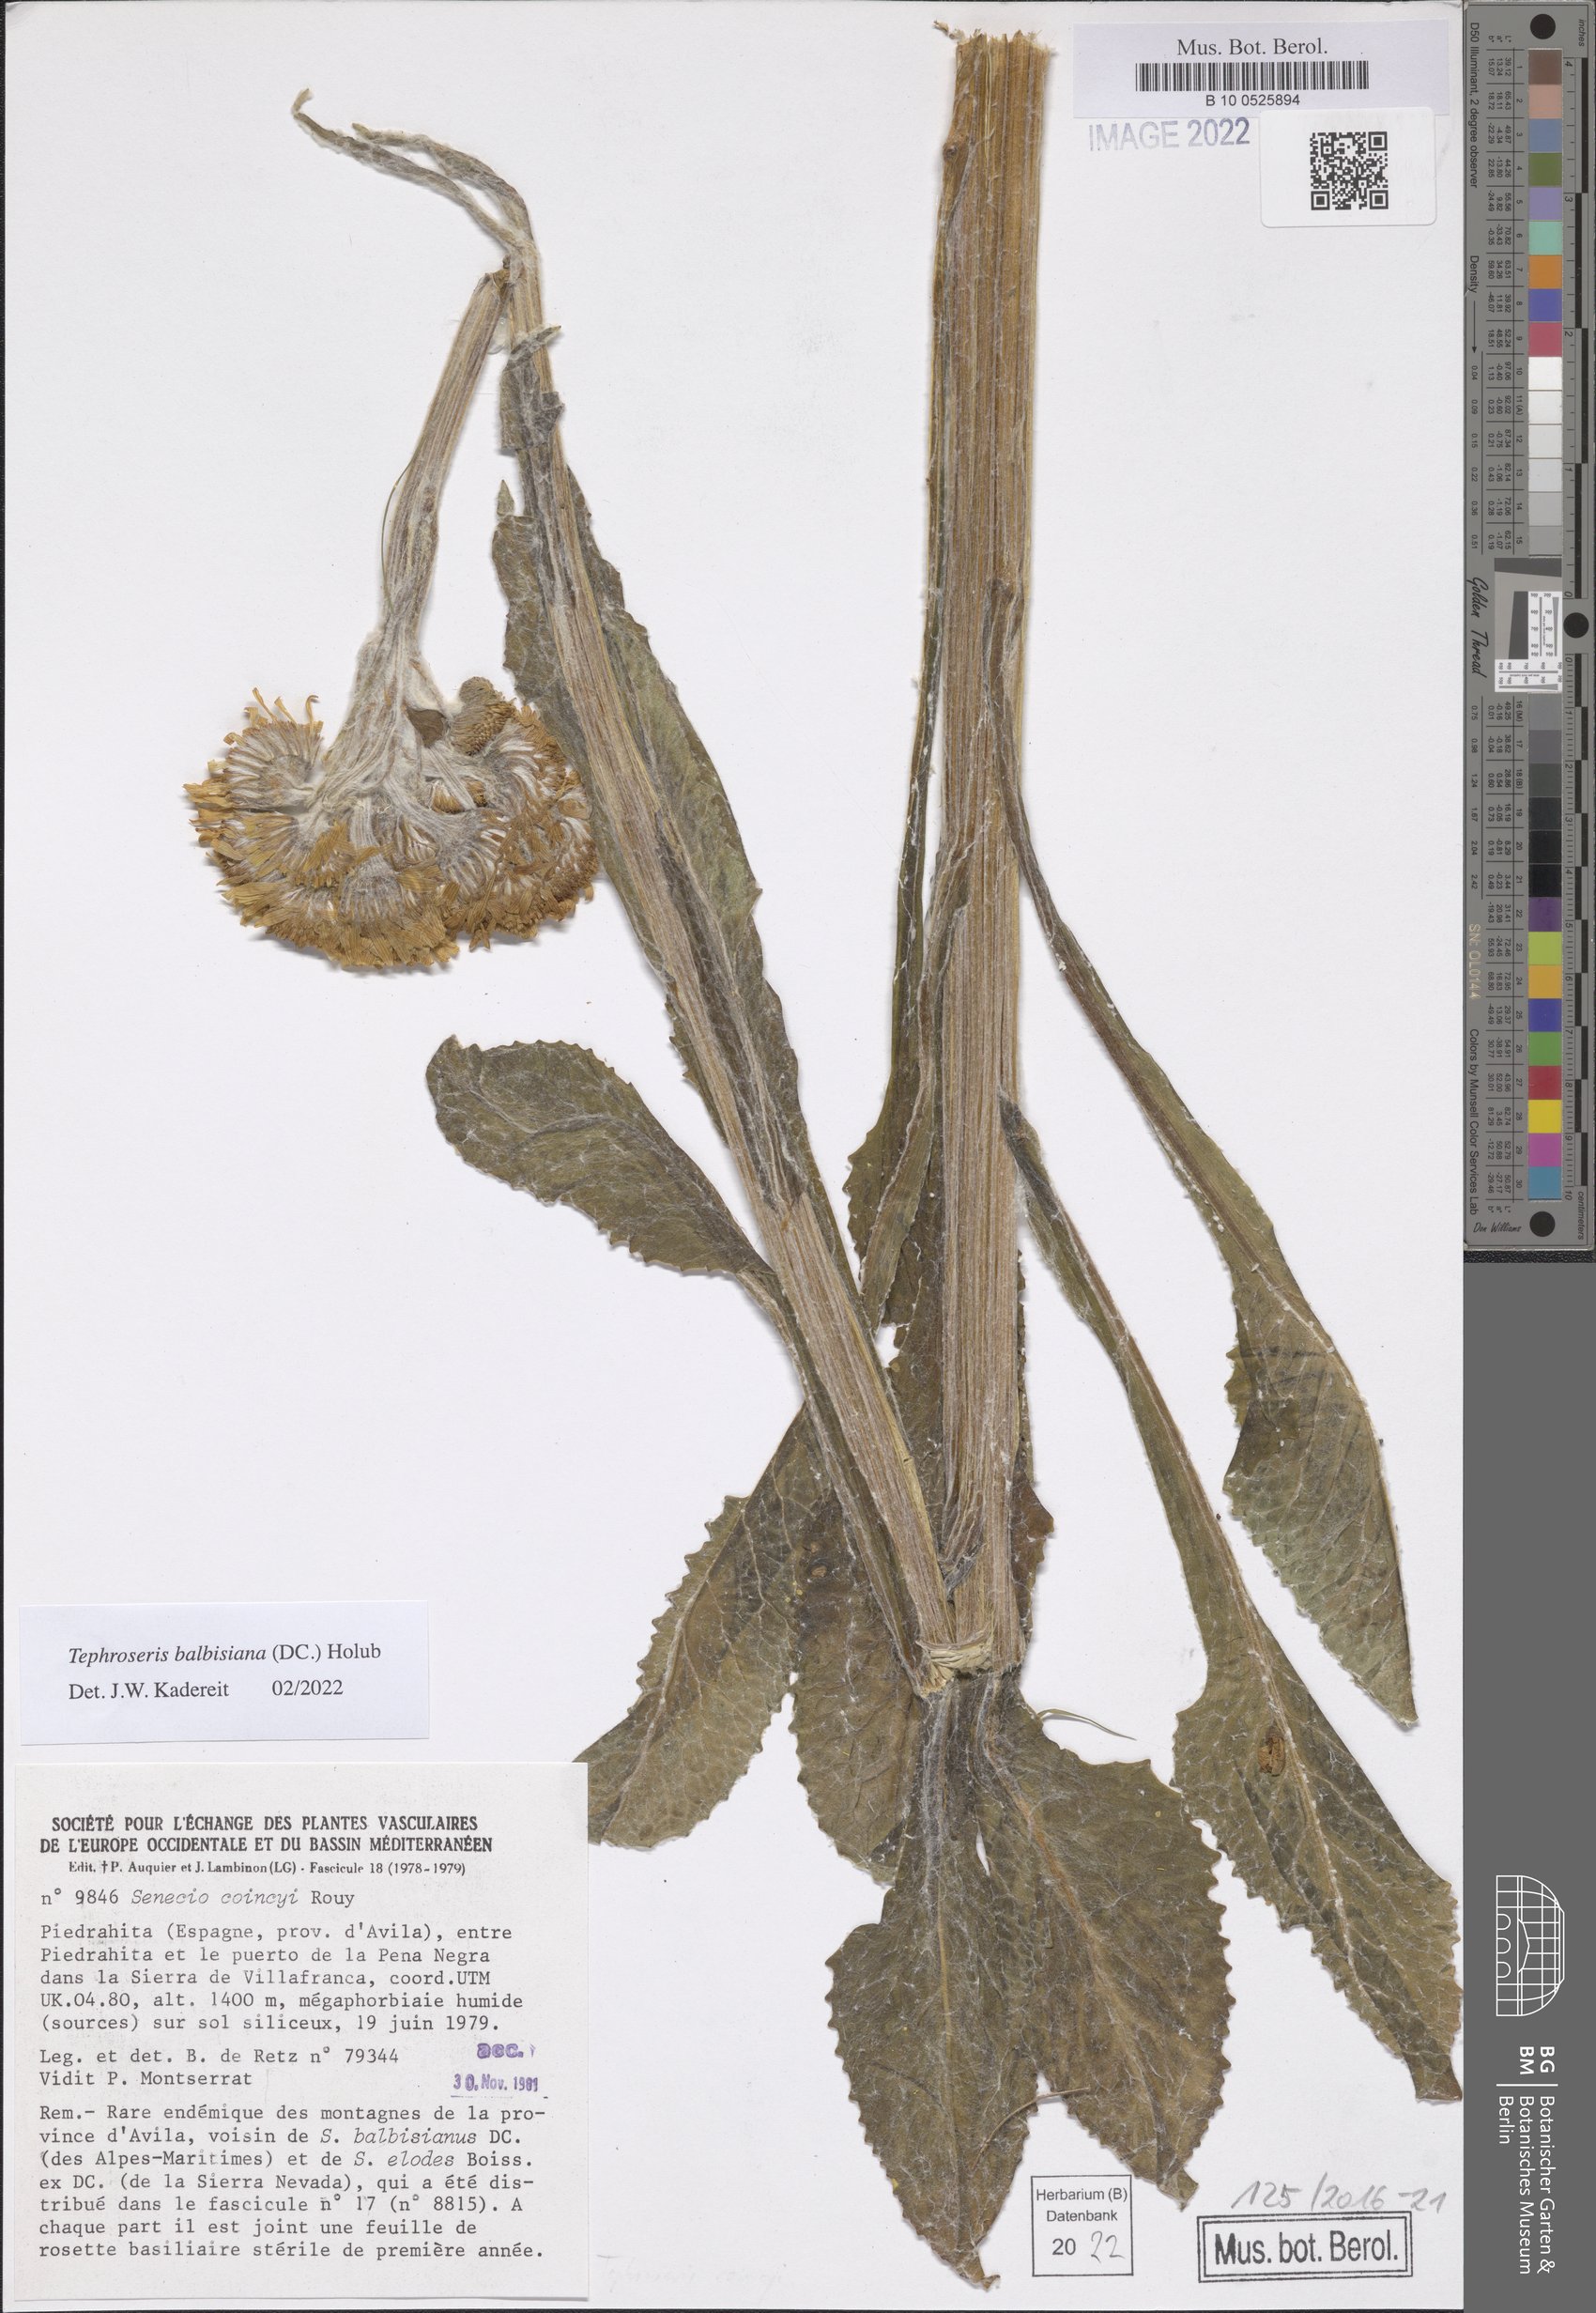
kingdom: Plantae
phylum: Tracheophyta
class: Magnoliopsida
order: Asterales
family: Asteraceae
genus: Tephroseris
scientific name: Tephroseris balbisiana
